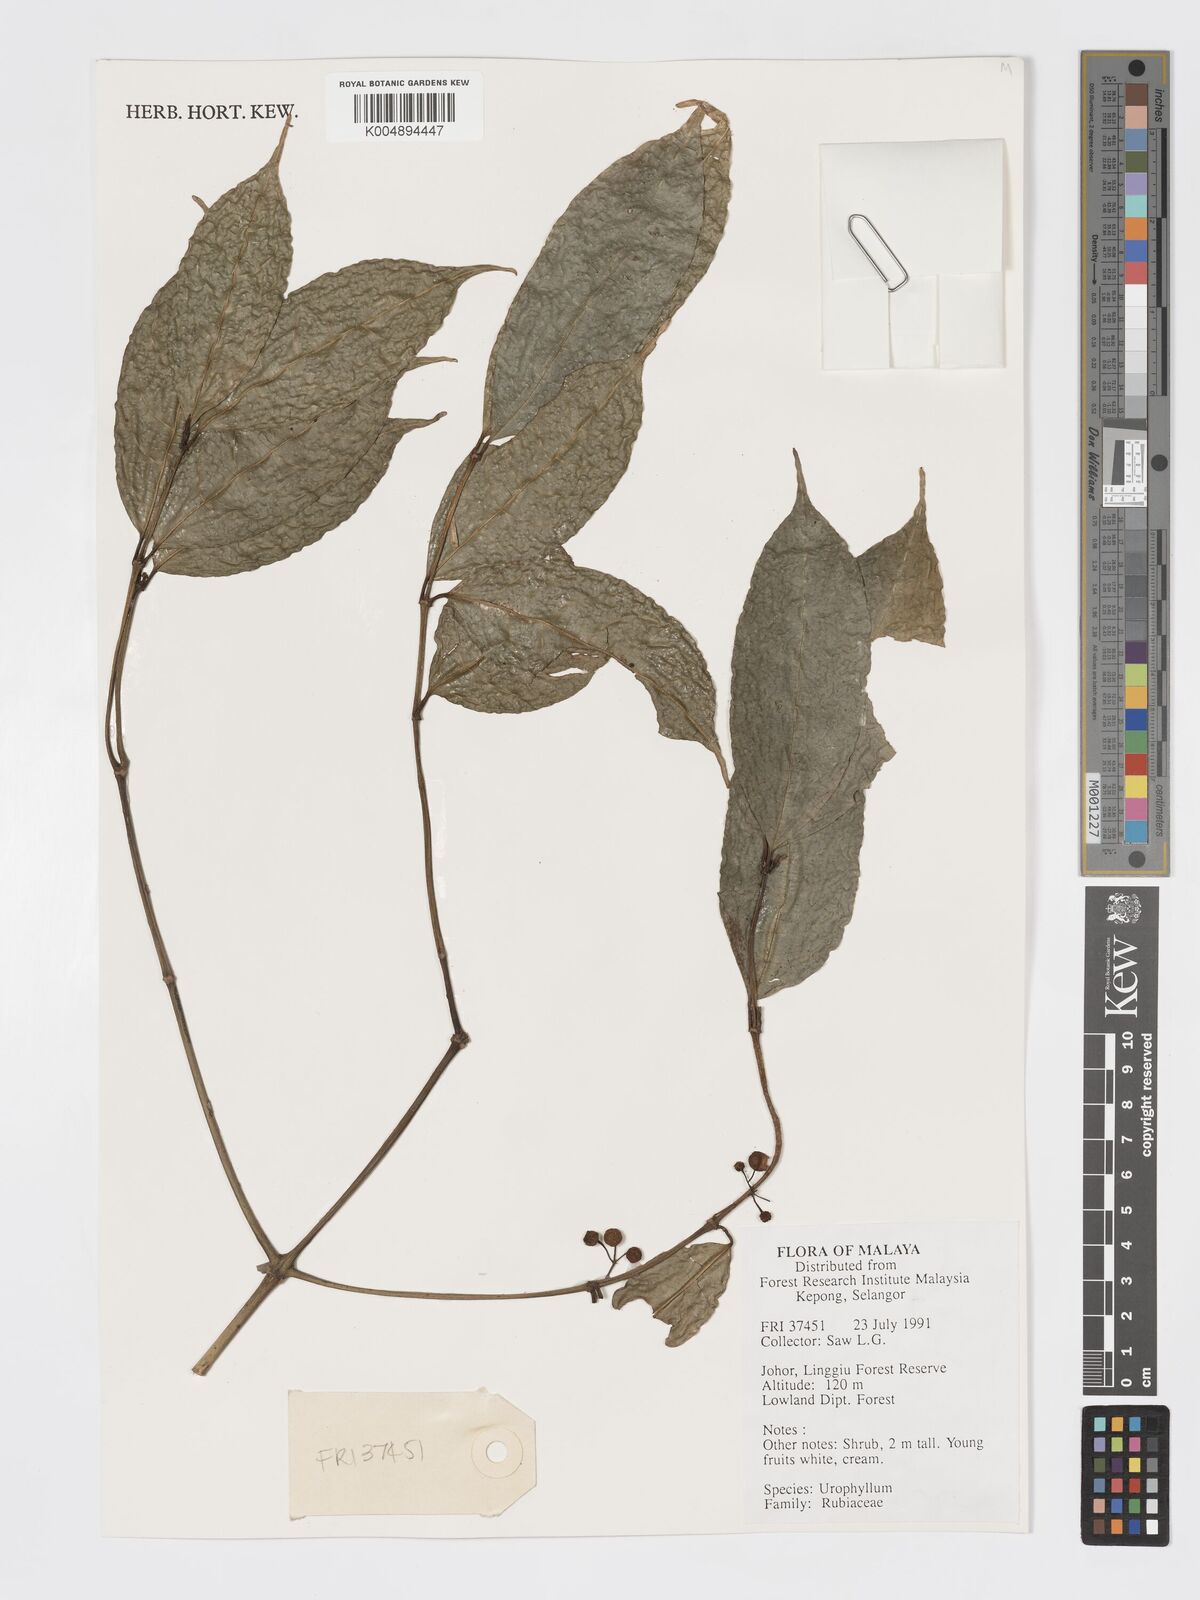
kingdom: Plantae
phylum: Tracheophyta
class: Magnoliopsida
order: Gentianales
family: Rubiaceae
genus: Urophyllum
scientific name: Urophyllum griffithianum
